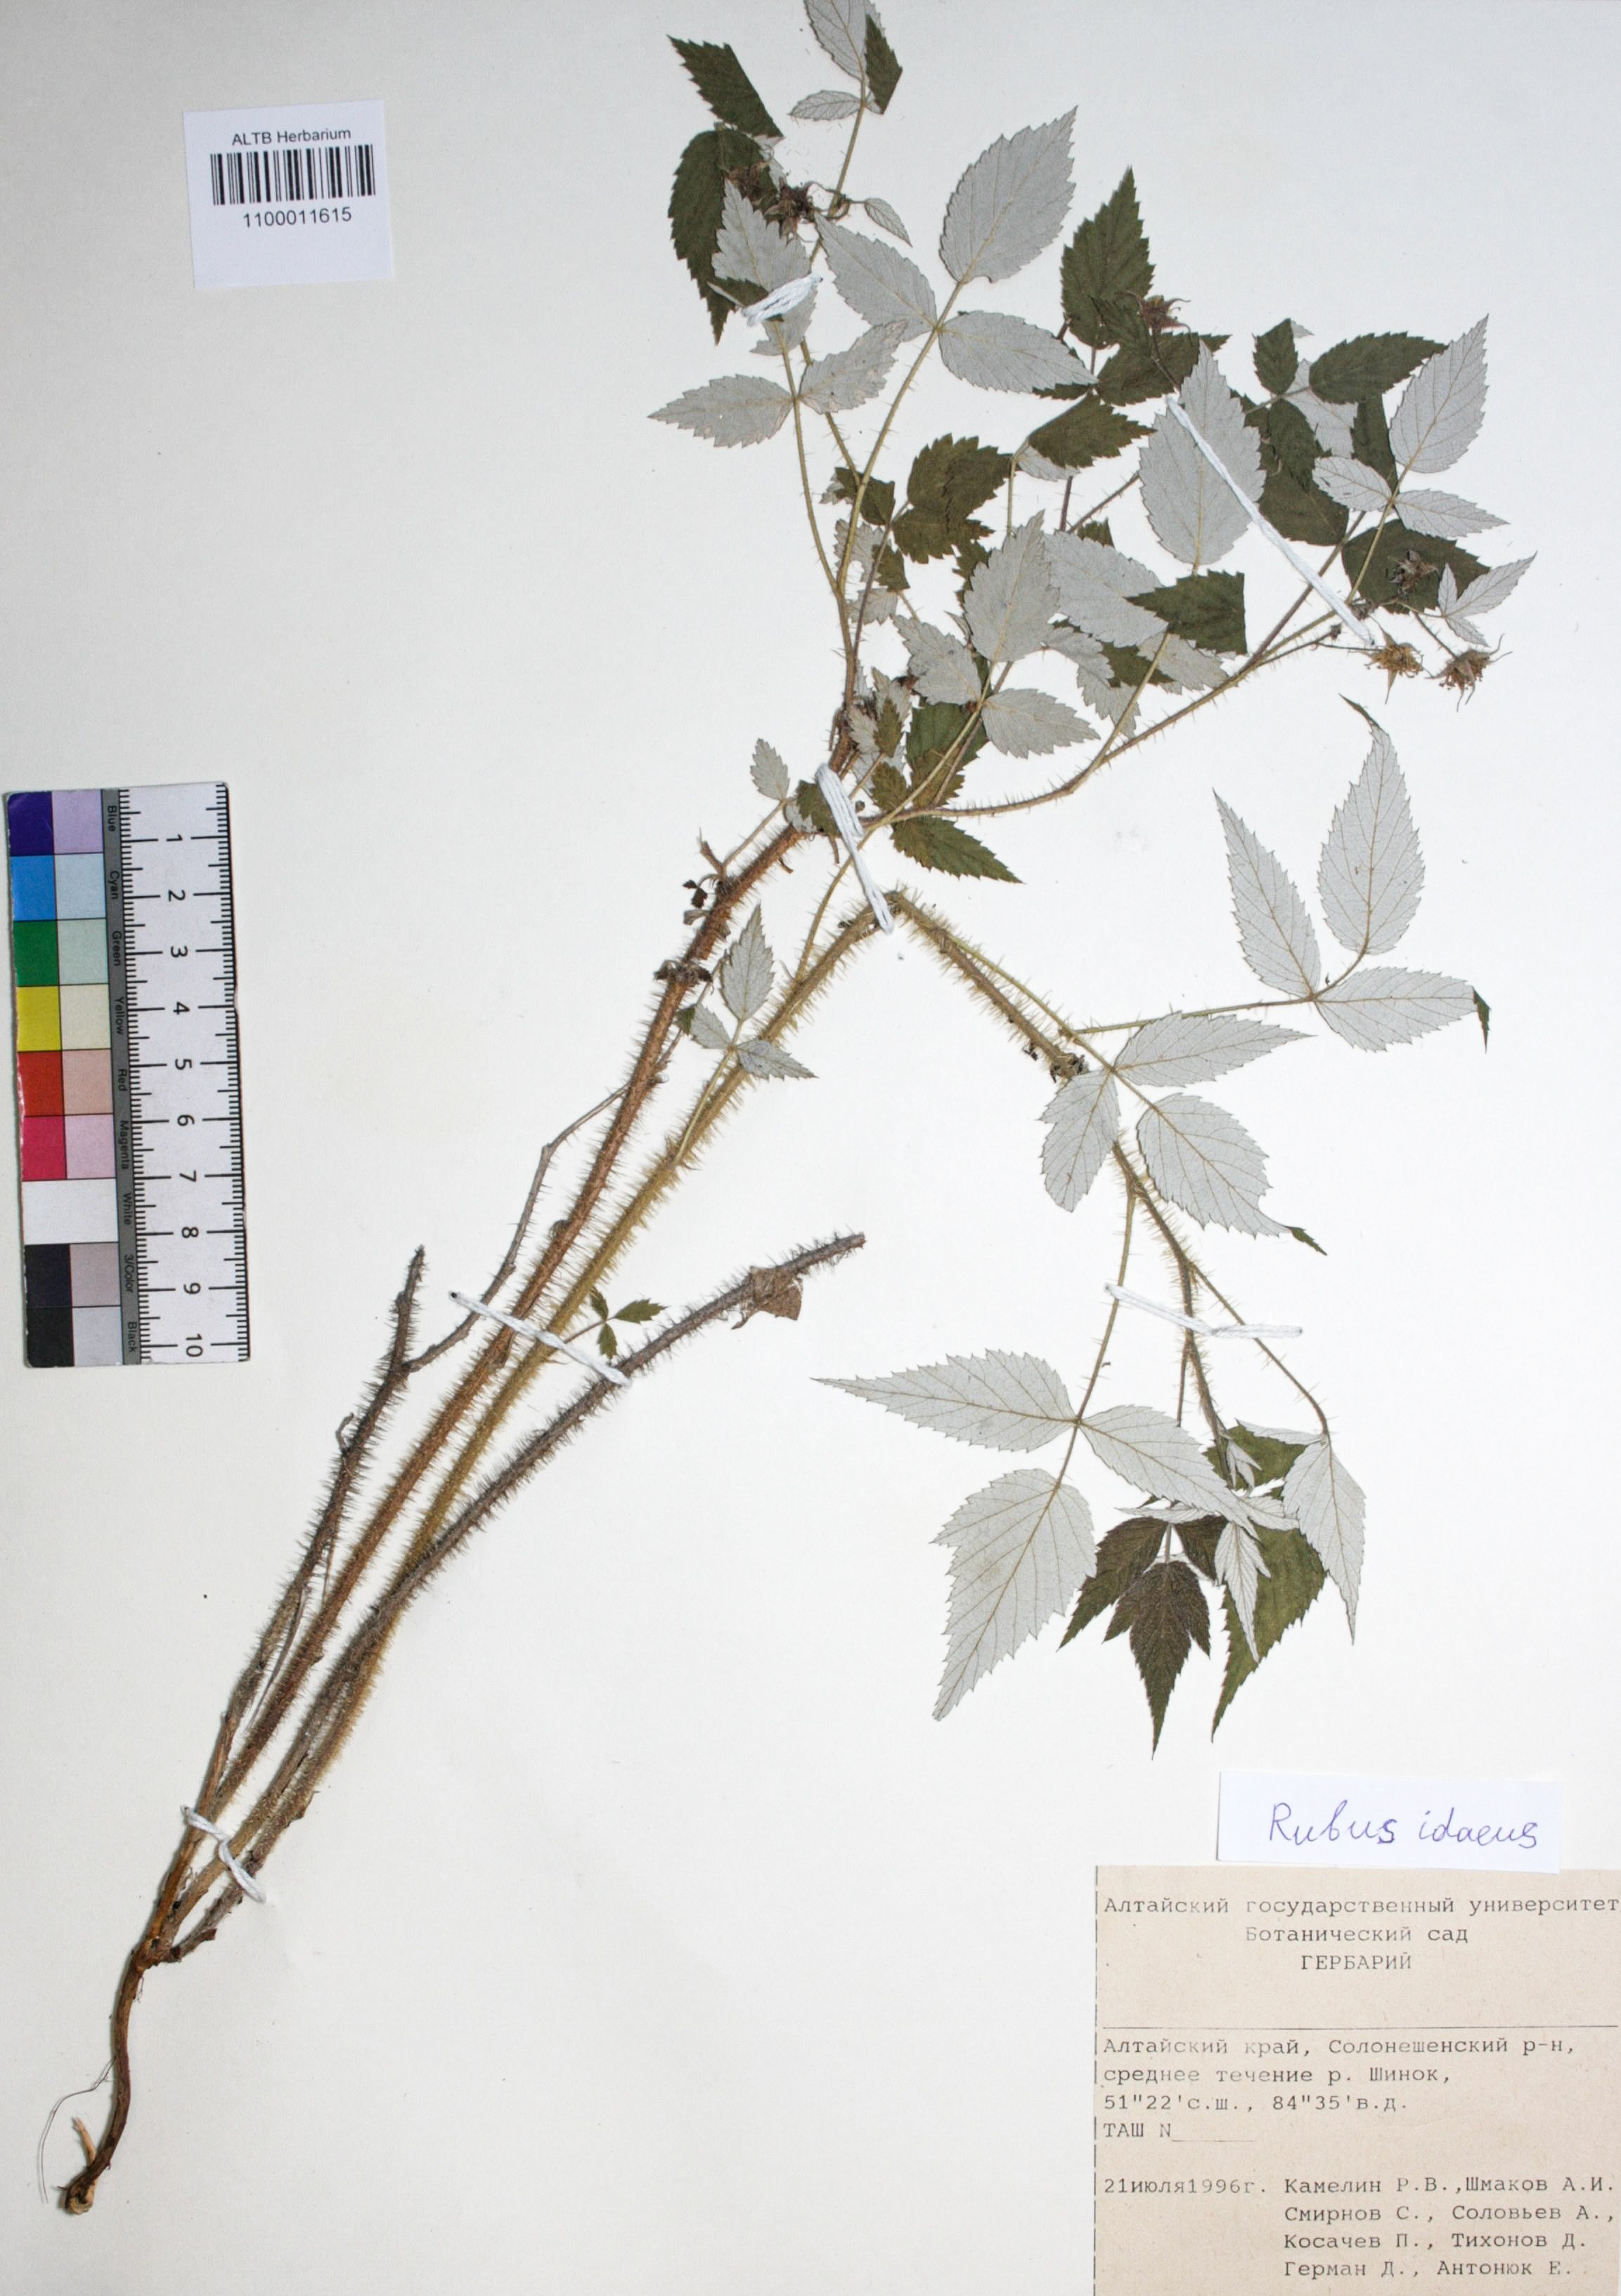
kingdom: Plantae
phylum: Tracheophyta
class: Magnoliopsida
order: Rosales
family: Rosaceae
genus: Rubus
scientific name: Rubus idaeus
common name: Raspberry
